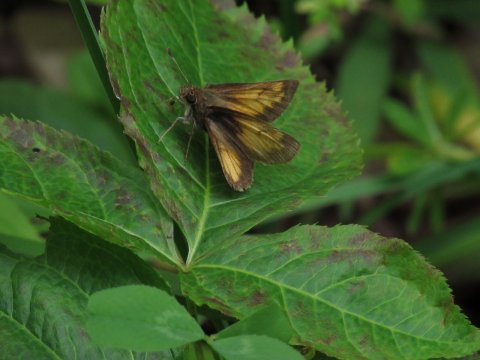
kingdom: Animalia
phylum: Arthropoda
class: Insecta
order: Lepidoptera
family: Hesperiidae
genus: Lon
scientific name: Lon hobomok
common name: Hobomok Skipper
